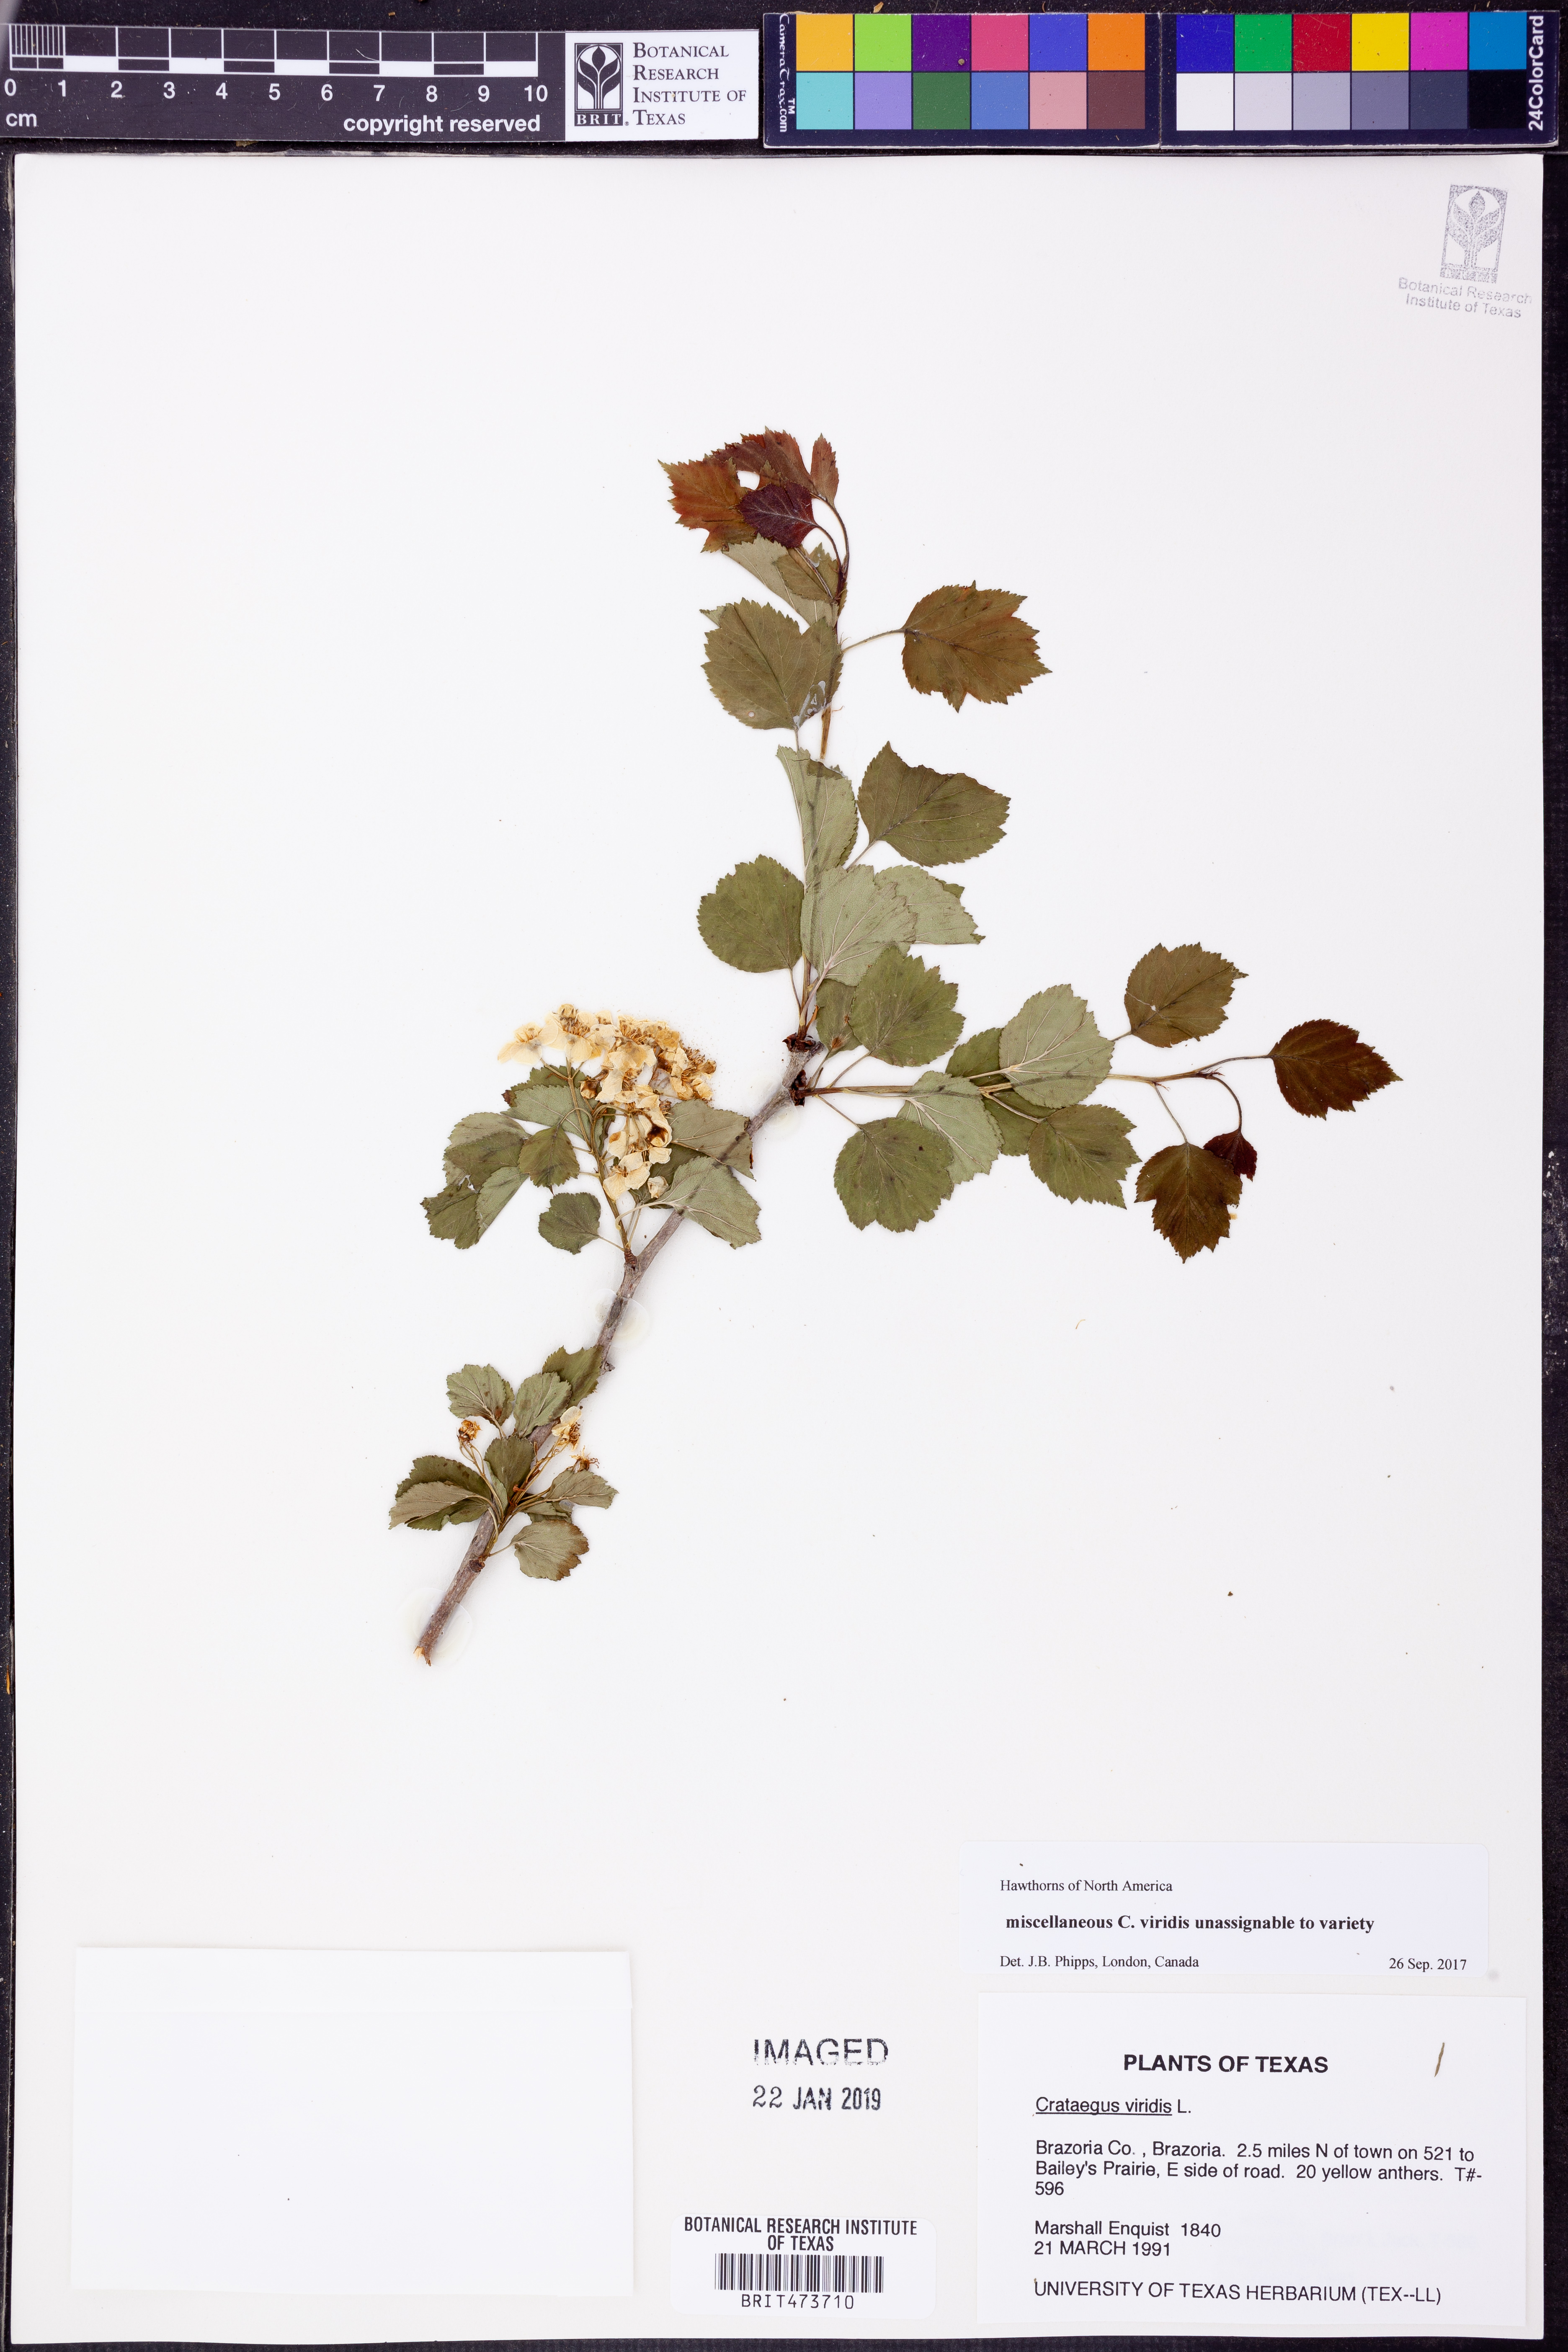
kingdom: Plantae
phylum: Tracheophyta
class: Magnoliopsida
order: Rosales
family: Rosaceae
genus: Crataegus
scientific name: Crataegus viridis
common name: Southernthorn
